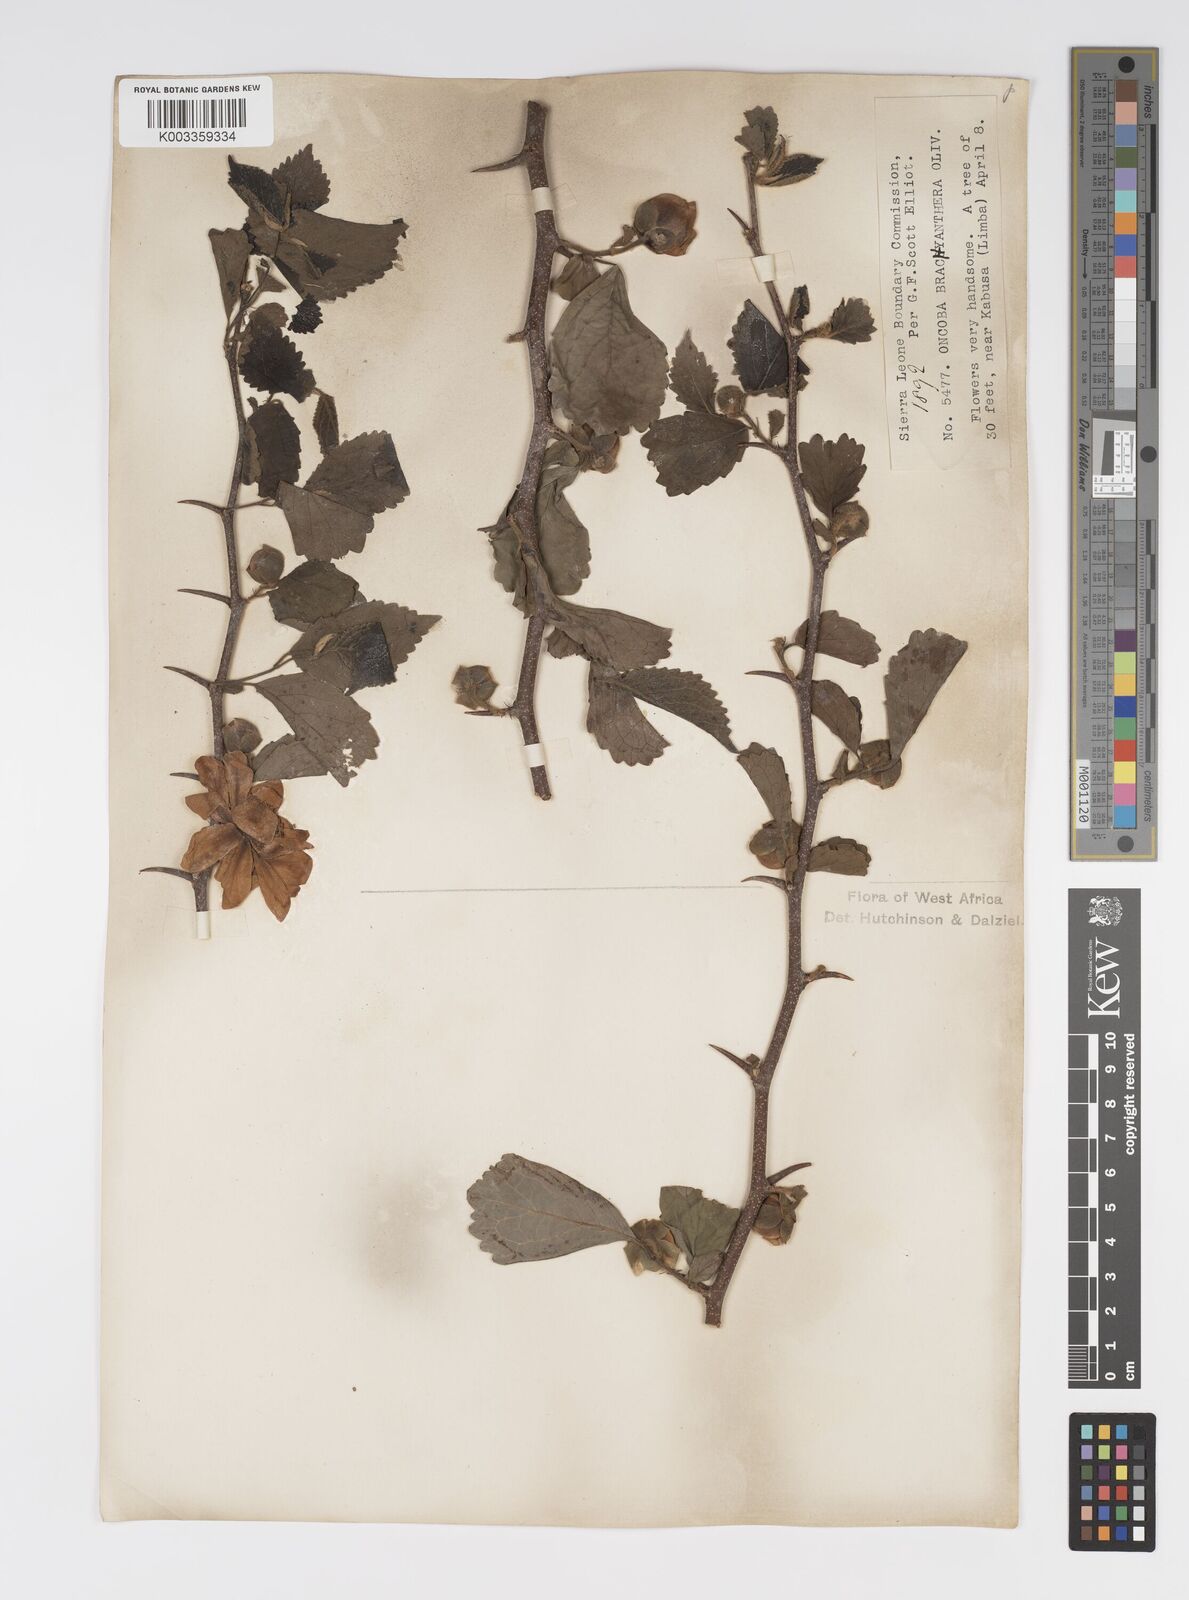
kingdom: Plantae
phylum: Tracheophyta
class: Magnoliopsida
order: Malpighiales
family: Salicaceae
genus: Oncoba
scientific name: Oncoba brachyanthera
